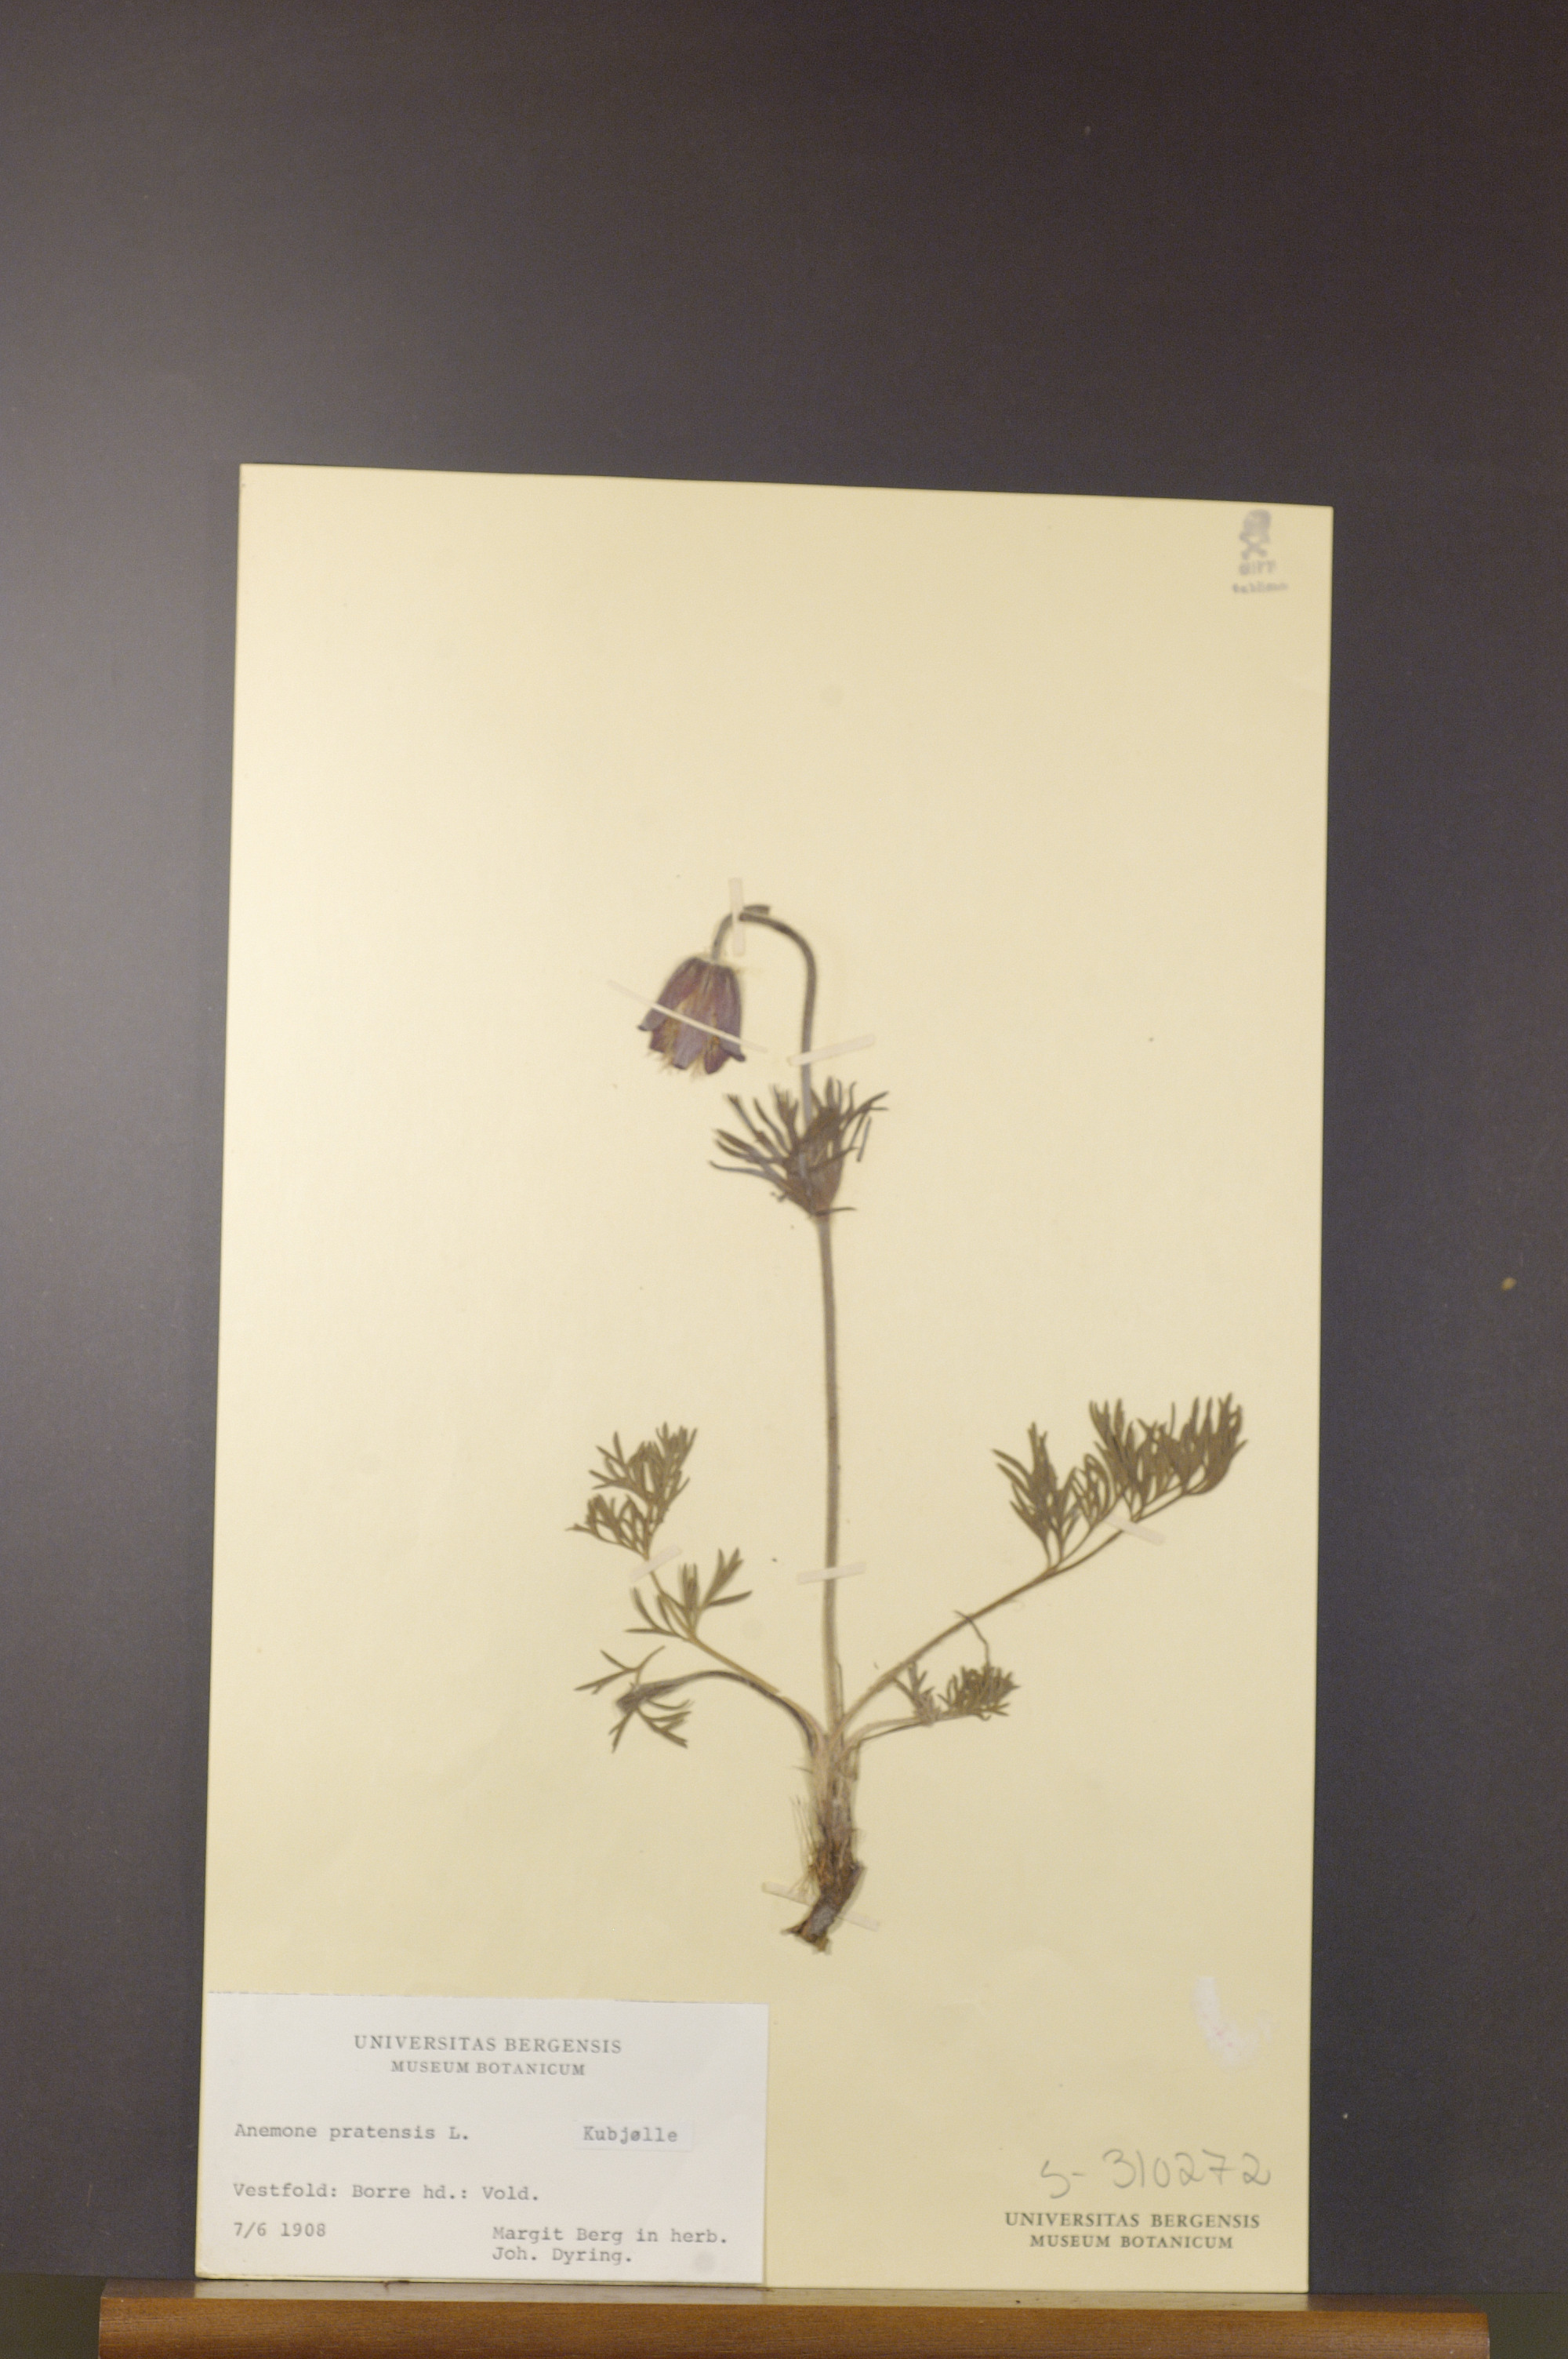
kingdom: Plantae
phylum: Tracheophyta
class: Magnoliopsida
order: Ranunculales
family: Ranunculaceae
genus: Pulsatilla
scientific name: Pulsatilla pratensis
